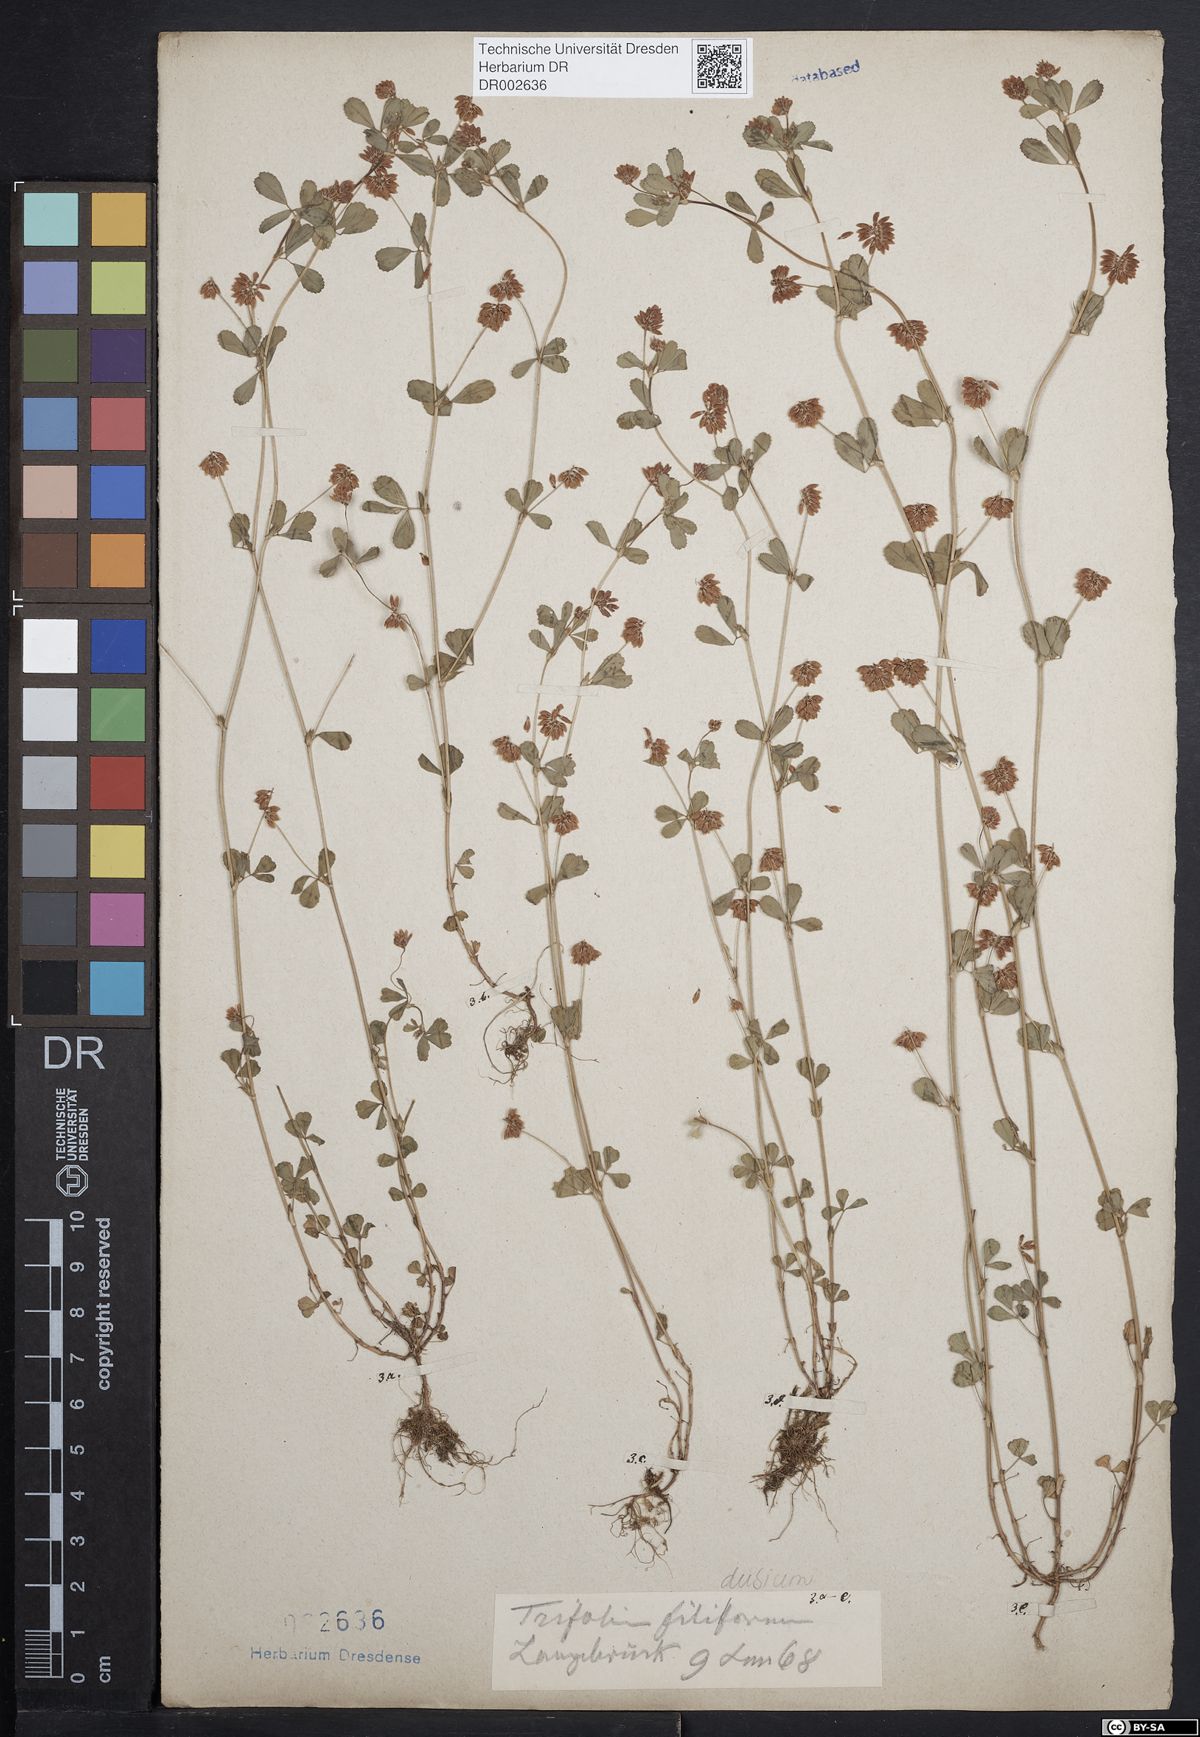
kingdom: Plantae
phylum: Tracheophyta
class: Magnoliopsida
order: Fabales
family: Fabaceae
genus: Trifolium
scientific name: Trifolium dubium
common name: Suckling clover
